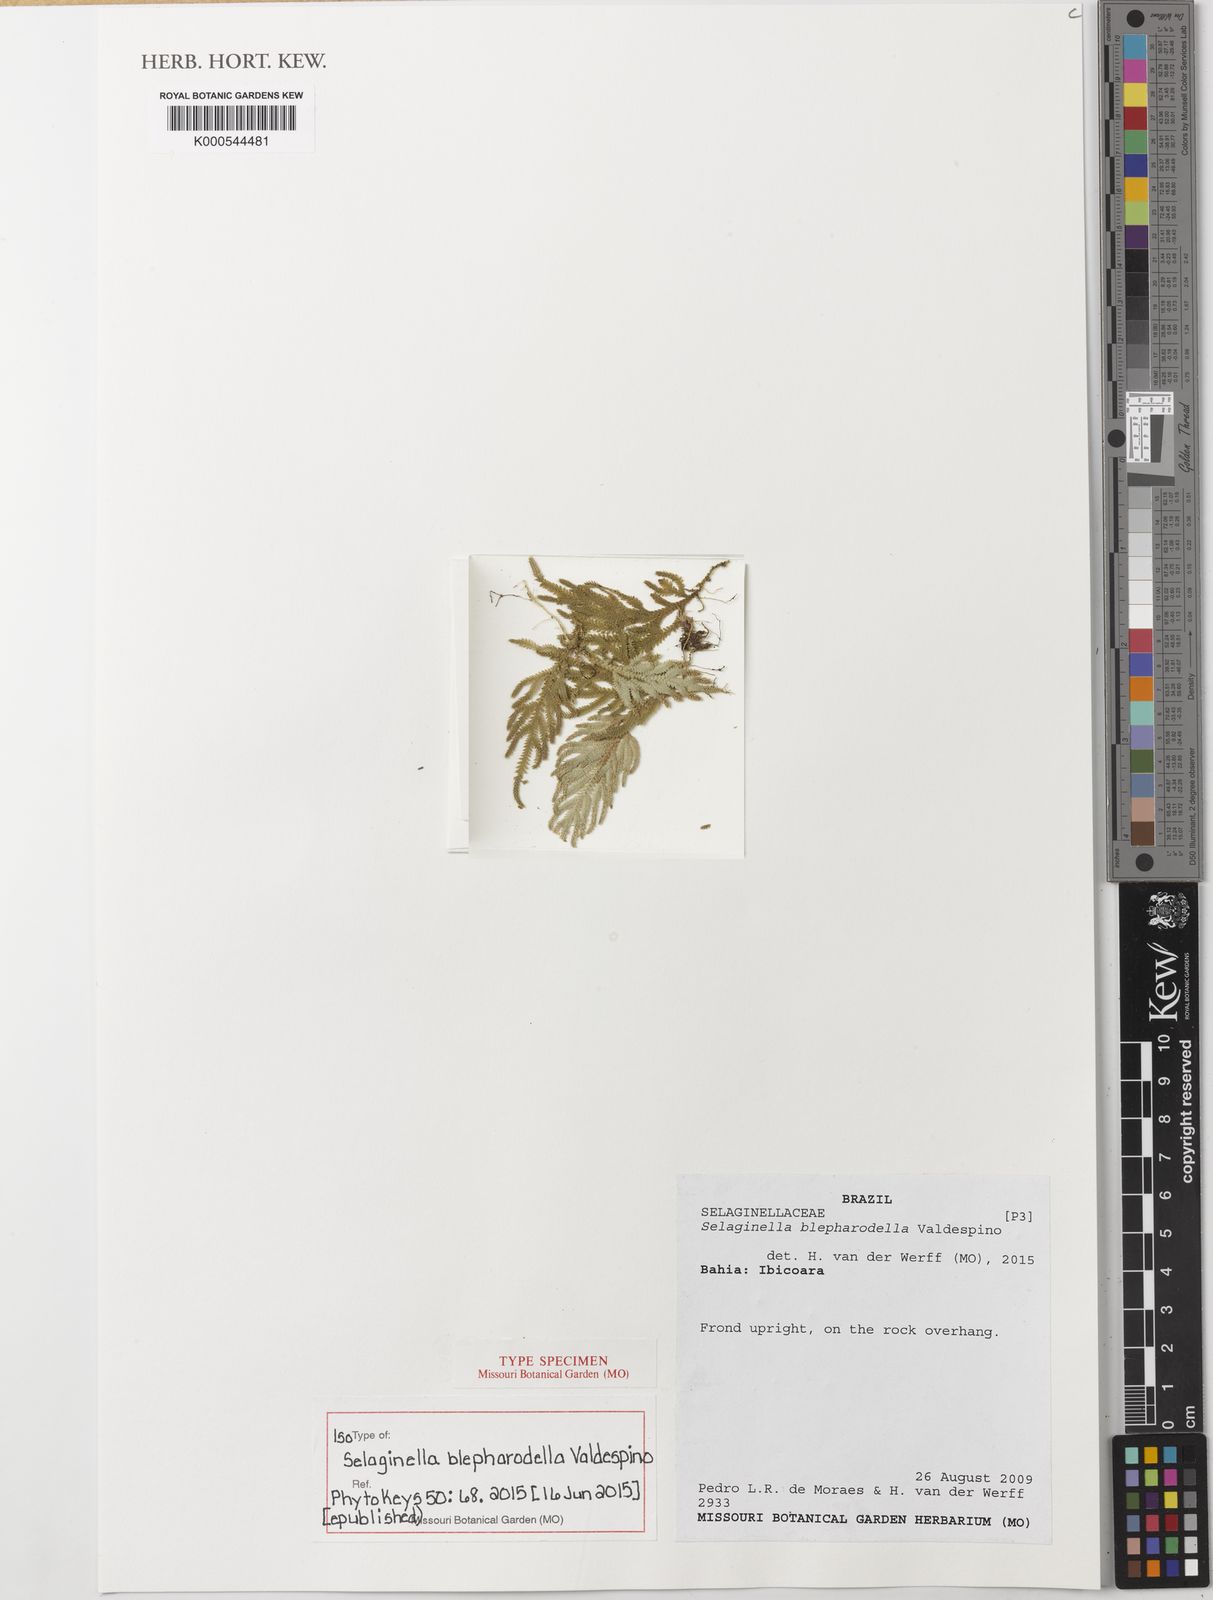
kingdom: Plantae
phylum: Tracheophyta
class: Lycopodiopsida
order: Selaginellales
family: Selaginellaceae
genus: Selaginella
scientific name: Selaginella blepharodella
